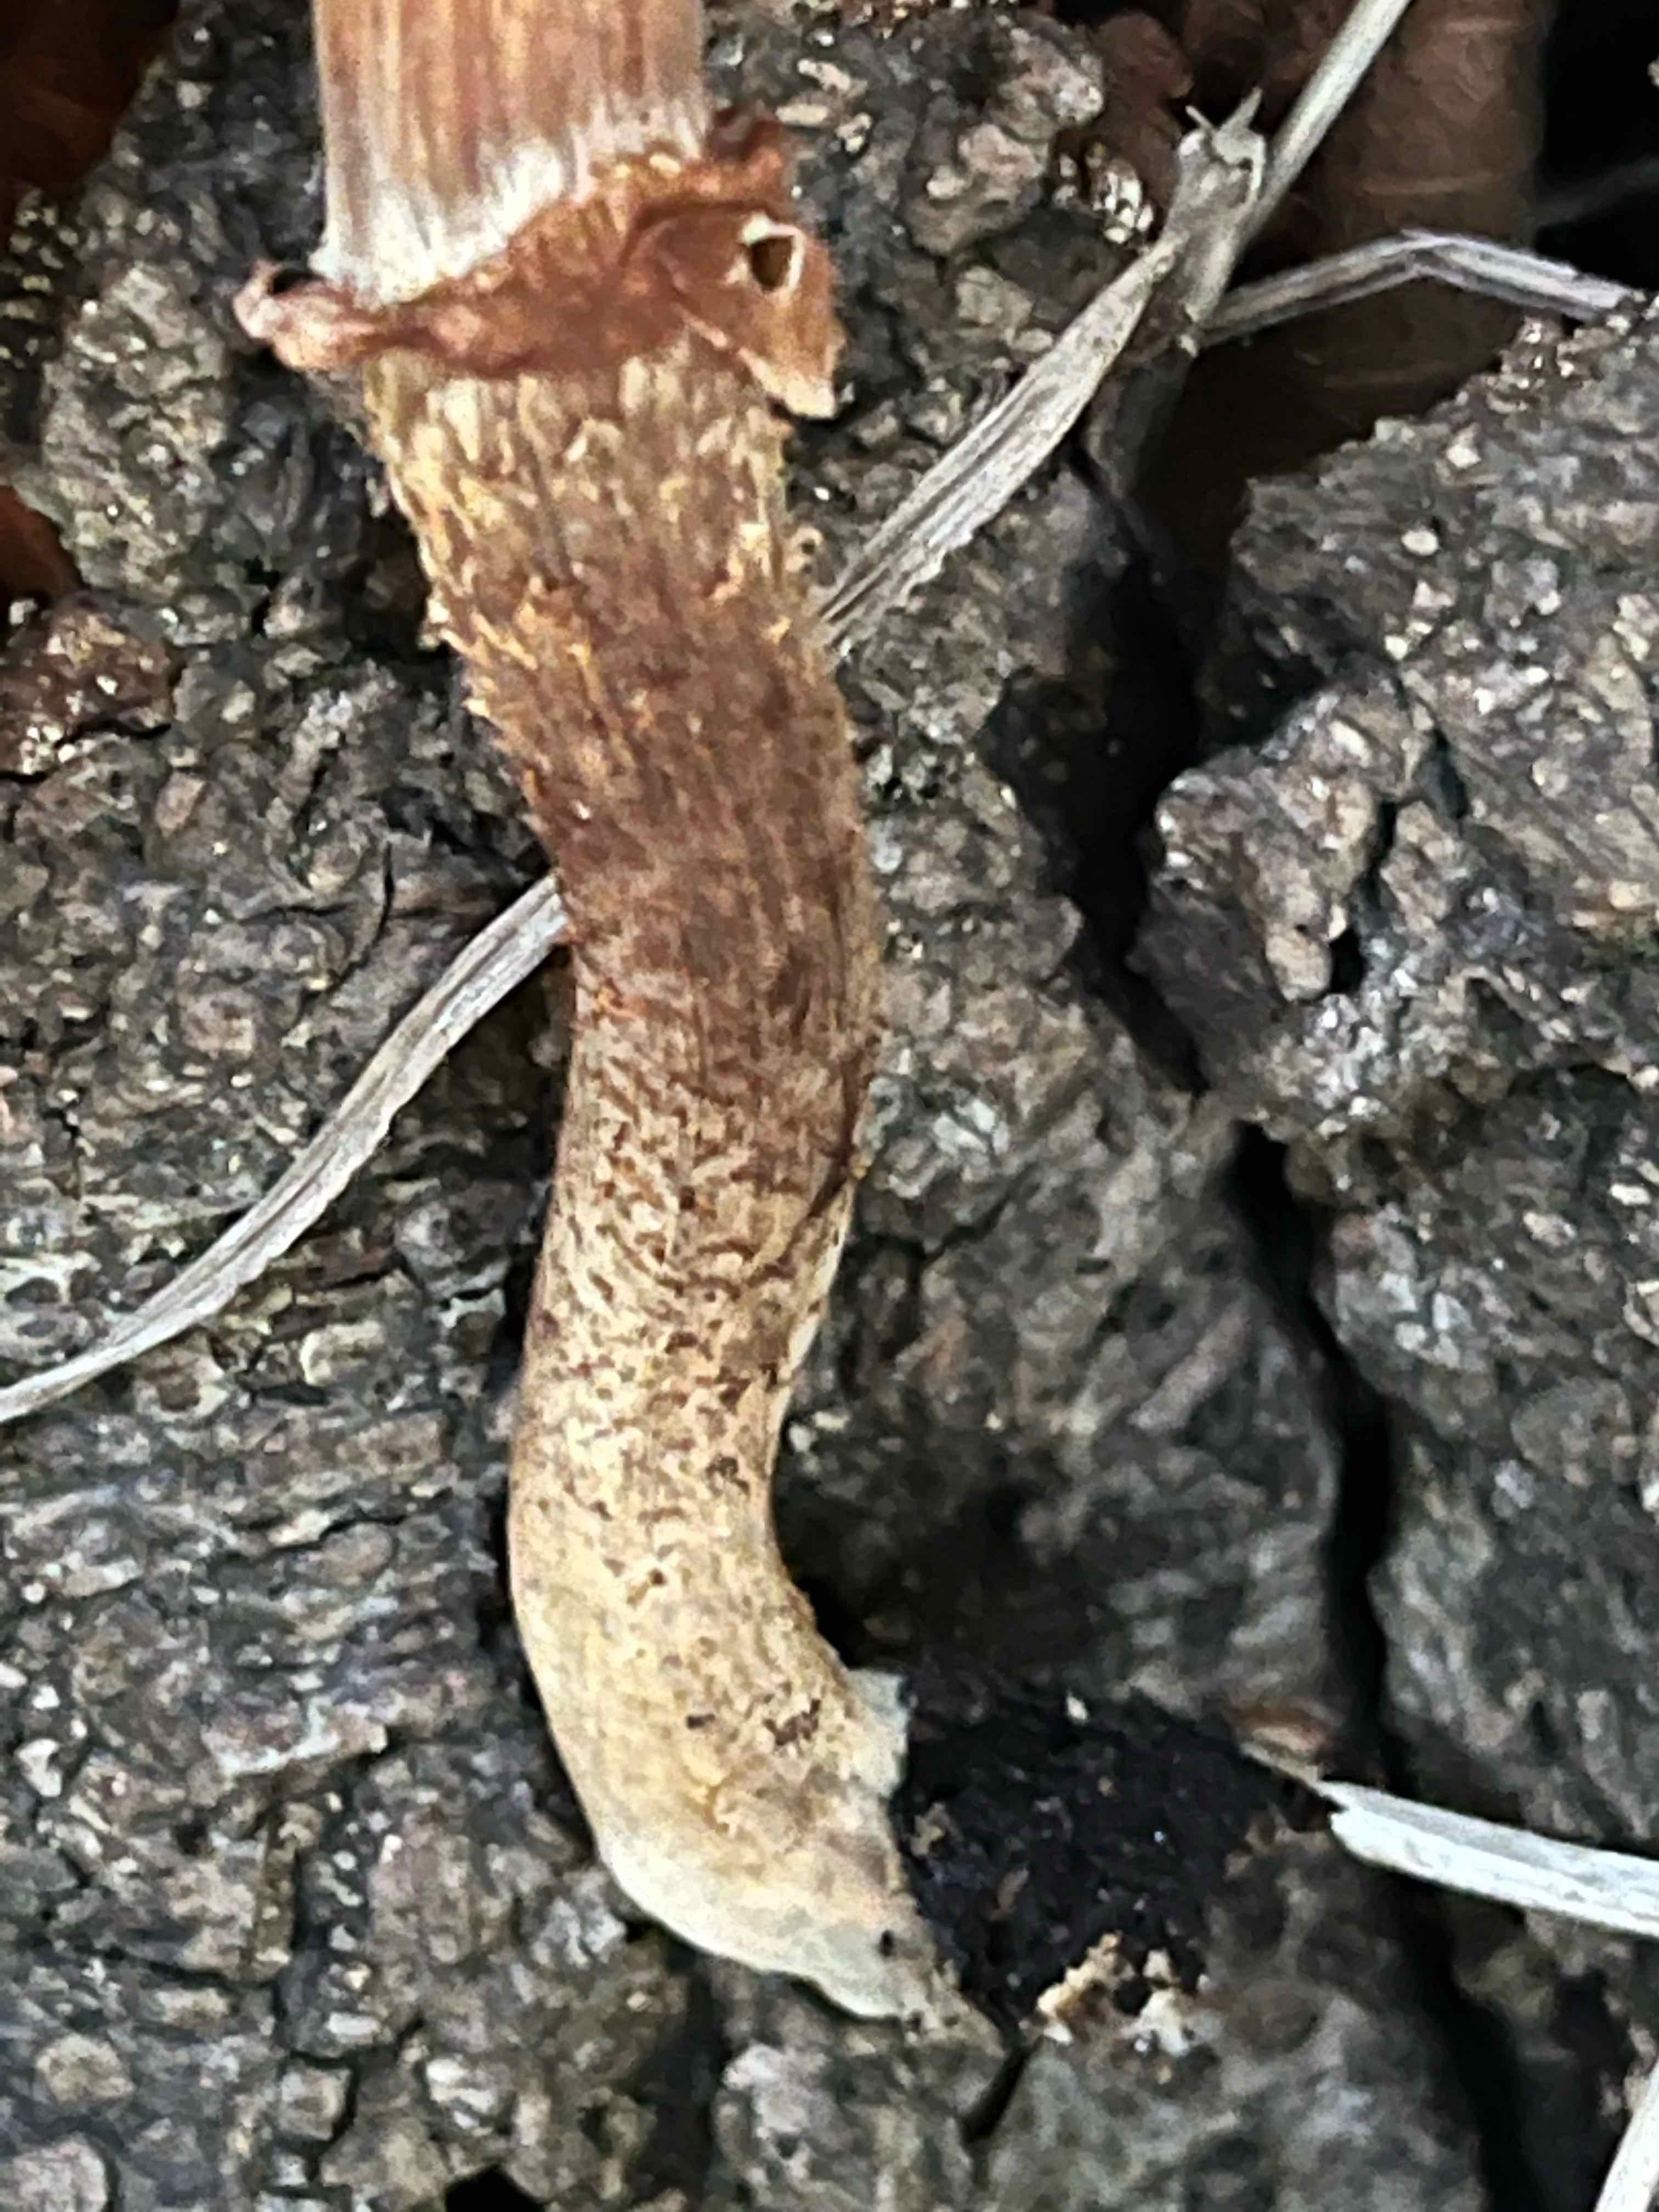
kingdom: Fungi
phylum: Basidiomycota
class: Agaricomycetes
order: Agaricales
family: Strophariaceae
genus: Kuehneromyces
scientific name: Kuehneromyces mutabilis
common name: foranderlig skælhat
